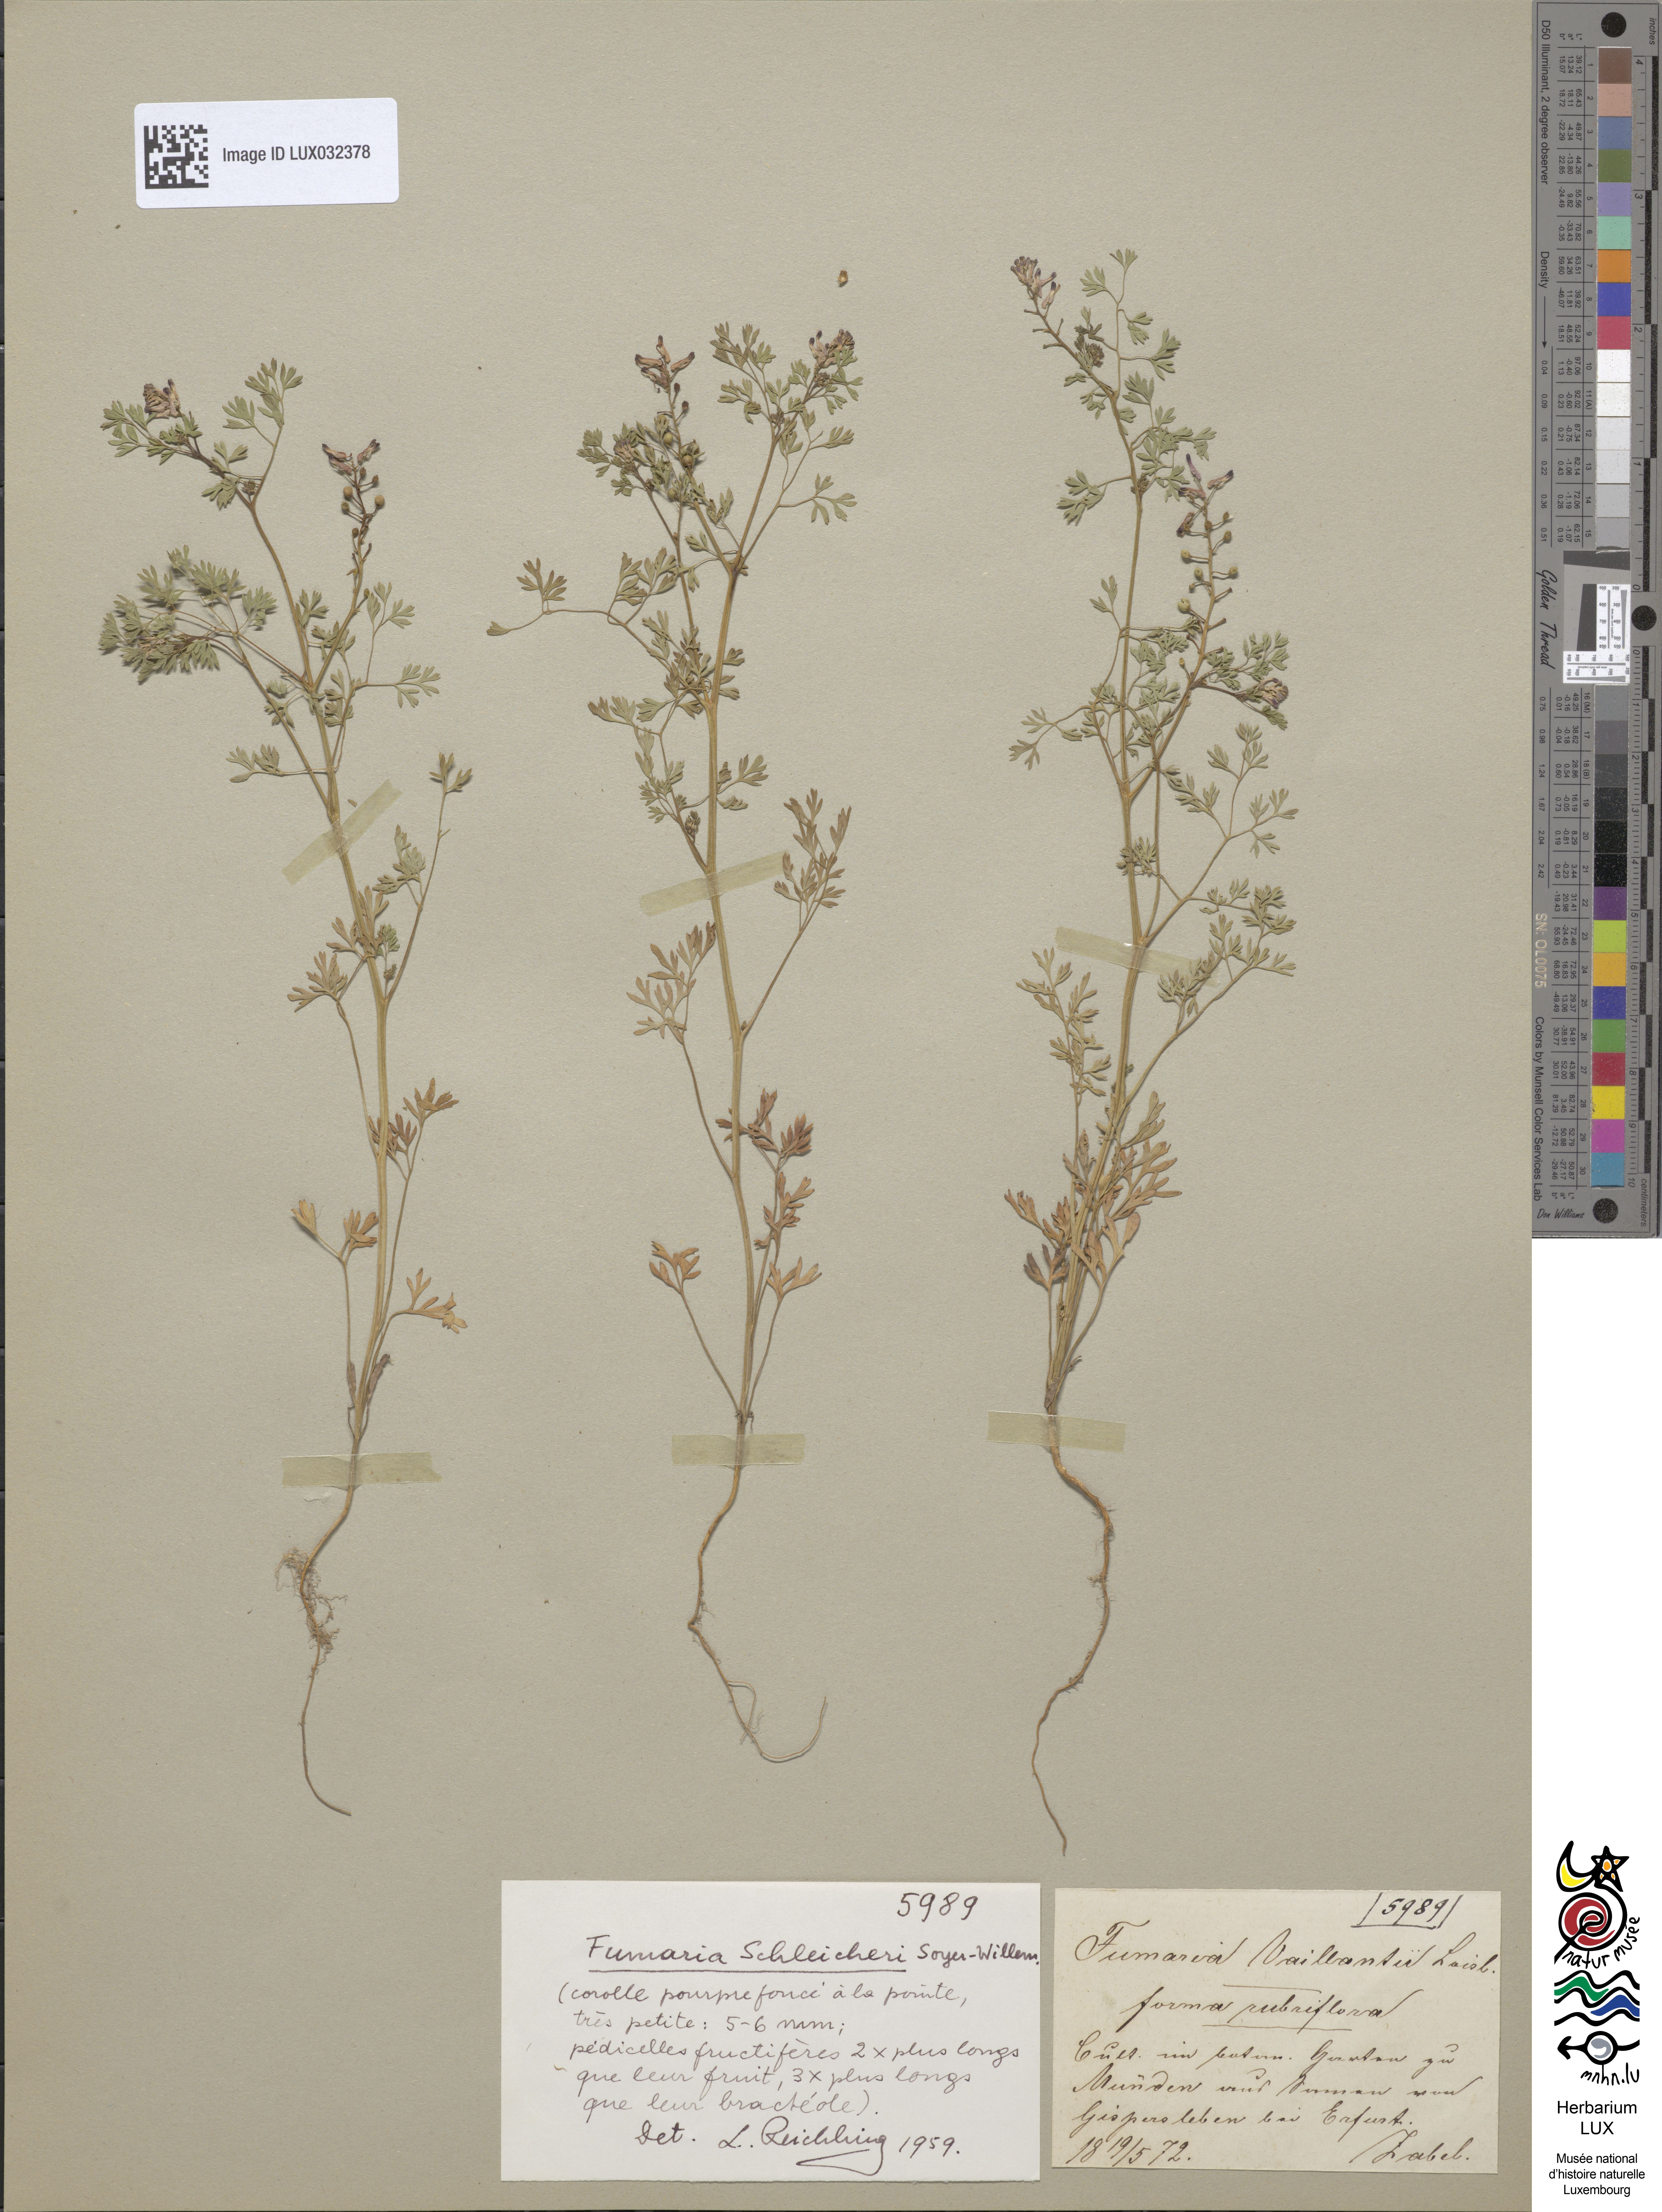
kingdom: Plantae
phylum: Tracheophyta
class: Magnoliopsida
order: Ranunculales
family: Papaveraceae
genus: Fumaria
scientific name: Fumaria schleicheri
